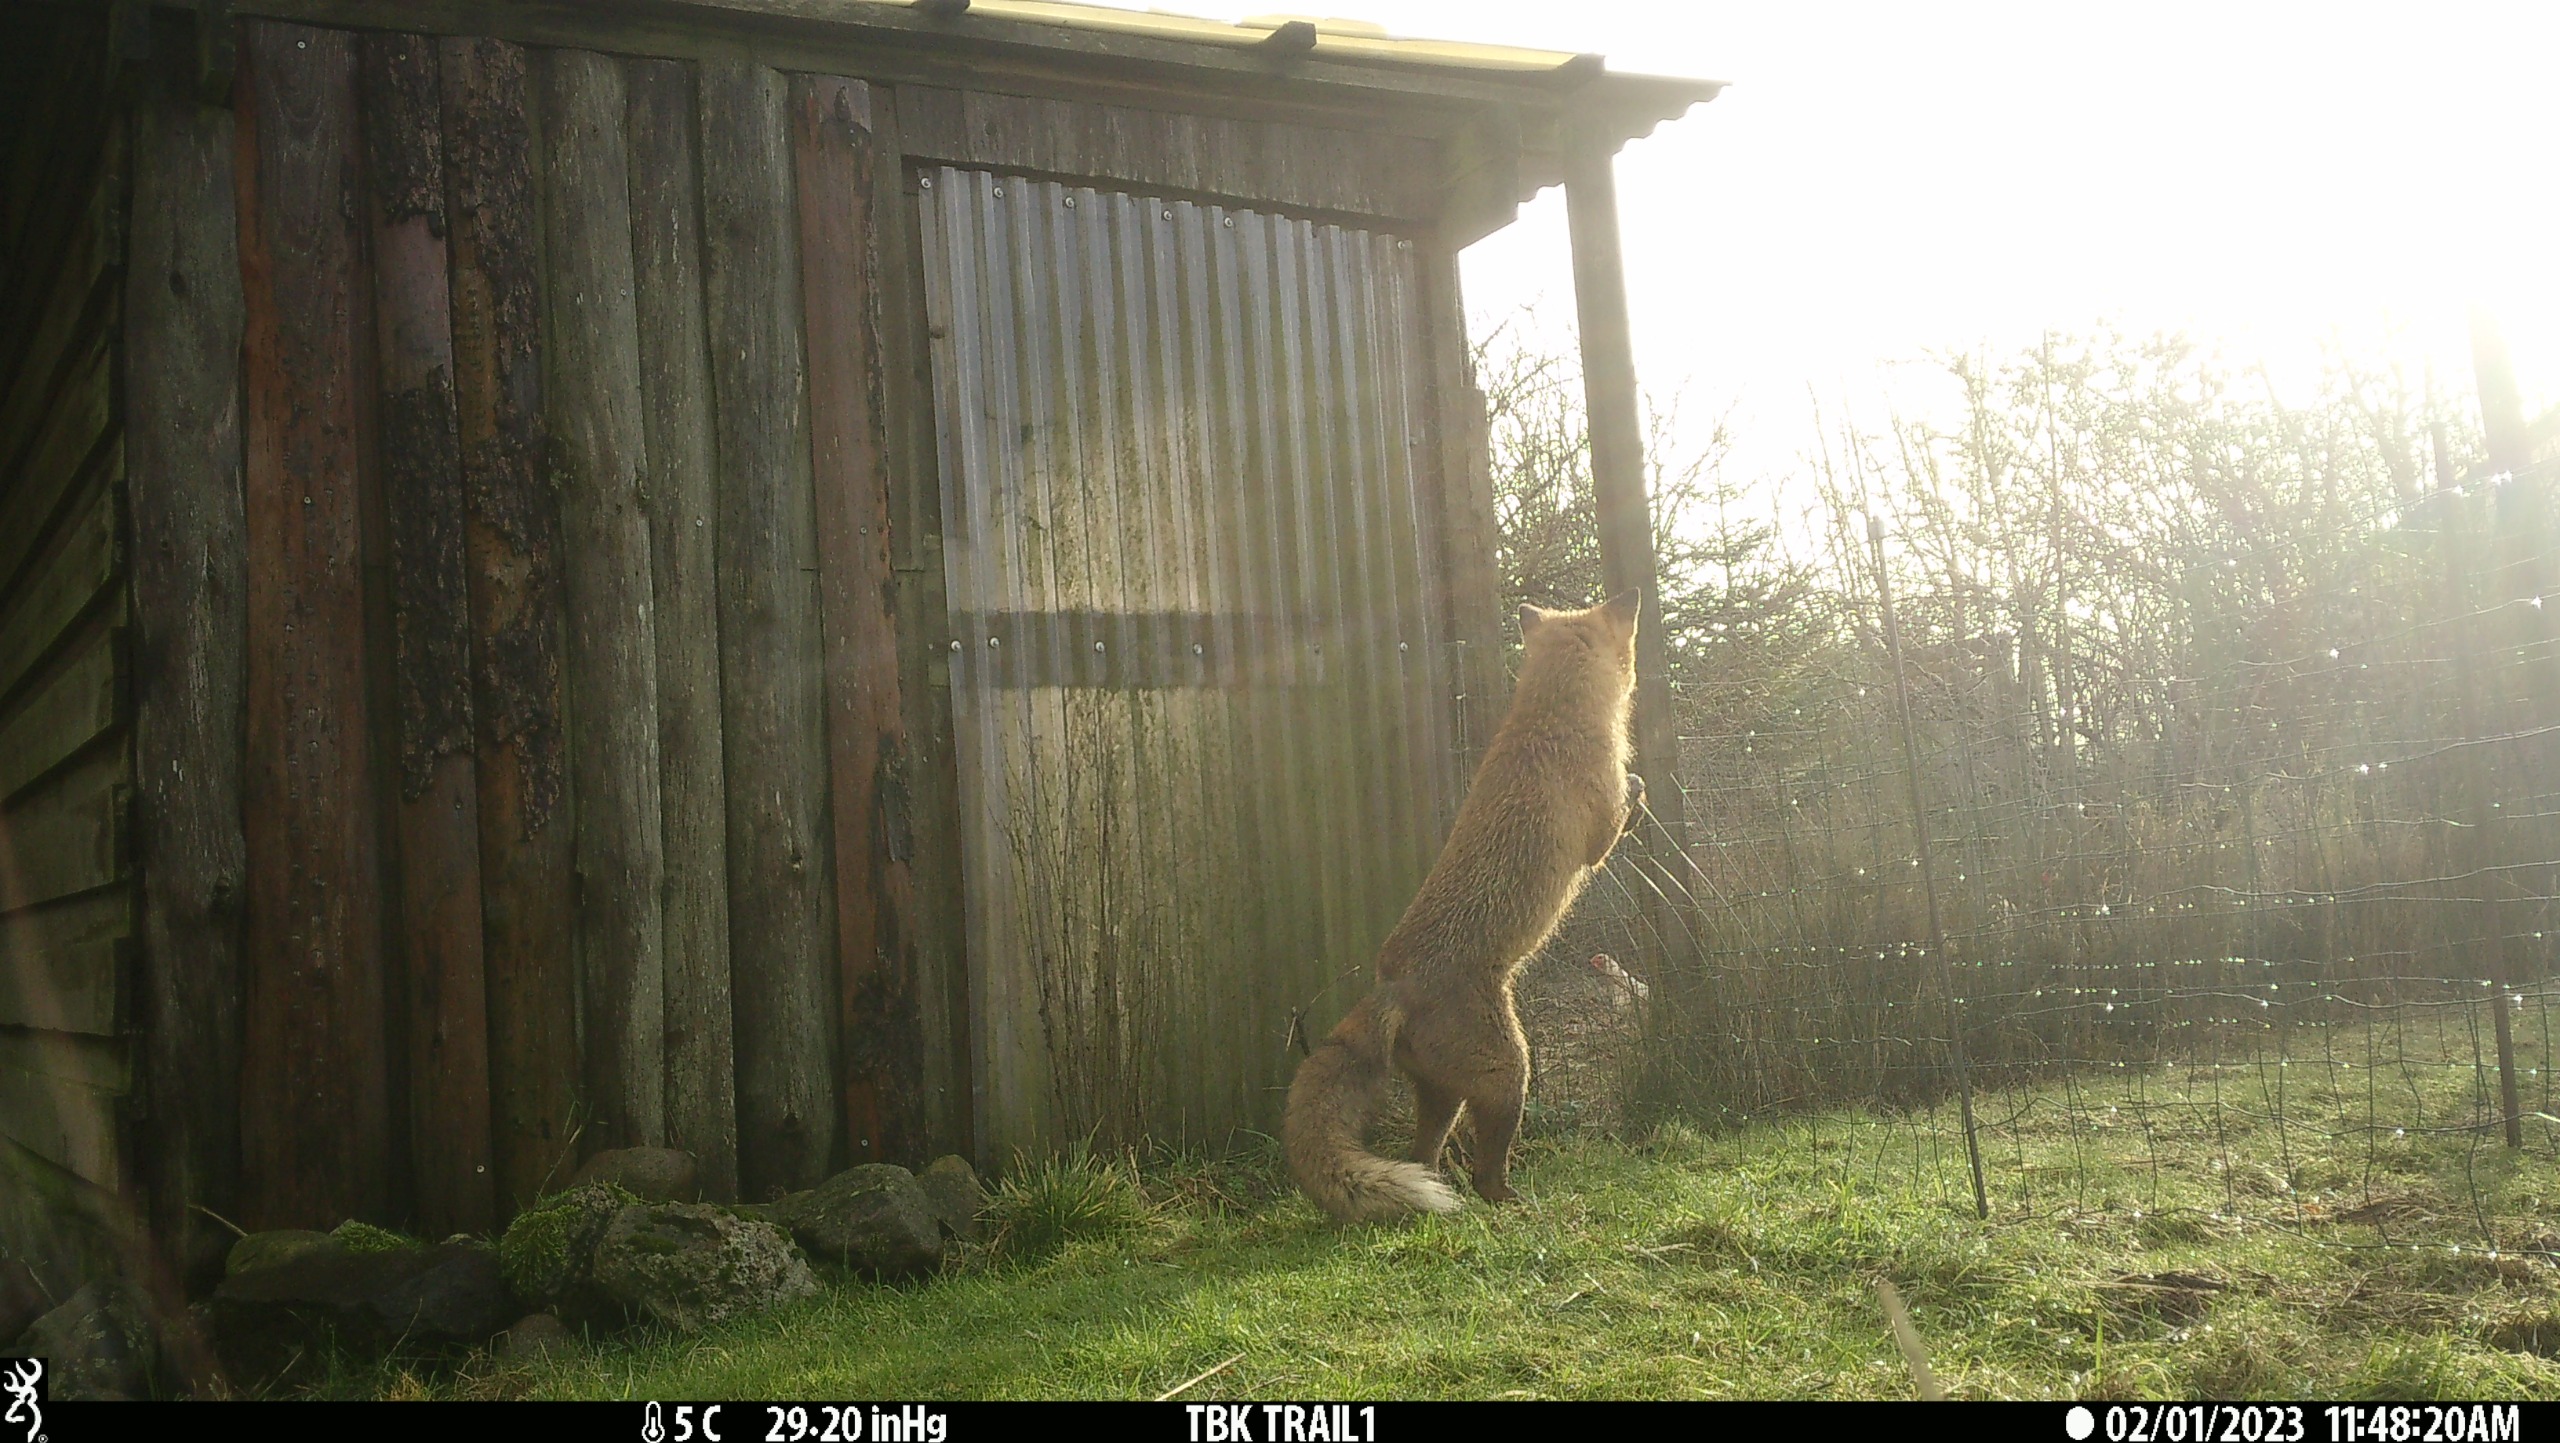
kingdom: Animalia
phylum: Chordata
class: Mammalia
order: Carnivora
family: Canidae
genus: Vulpes
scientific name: Vulpes vulpes
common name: Ræv
